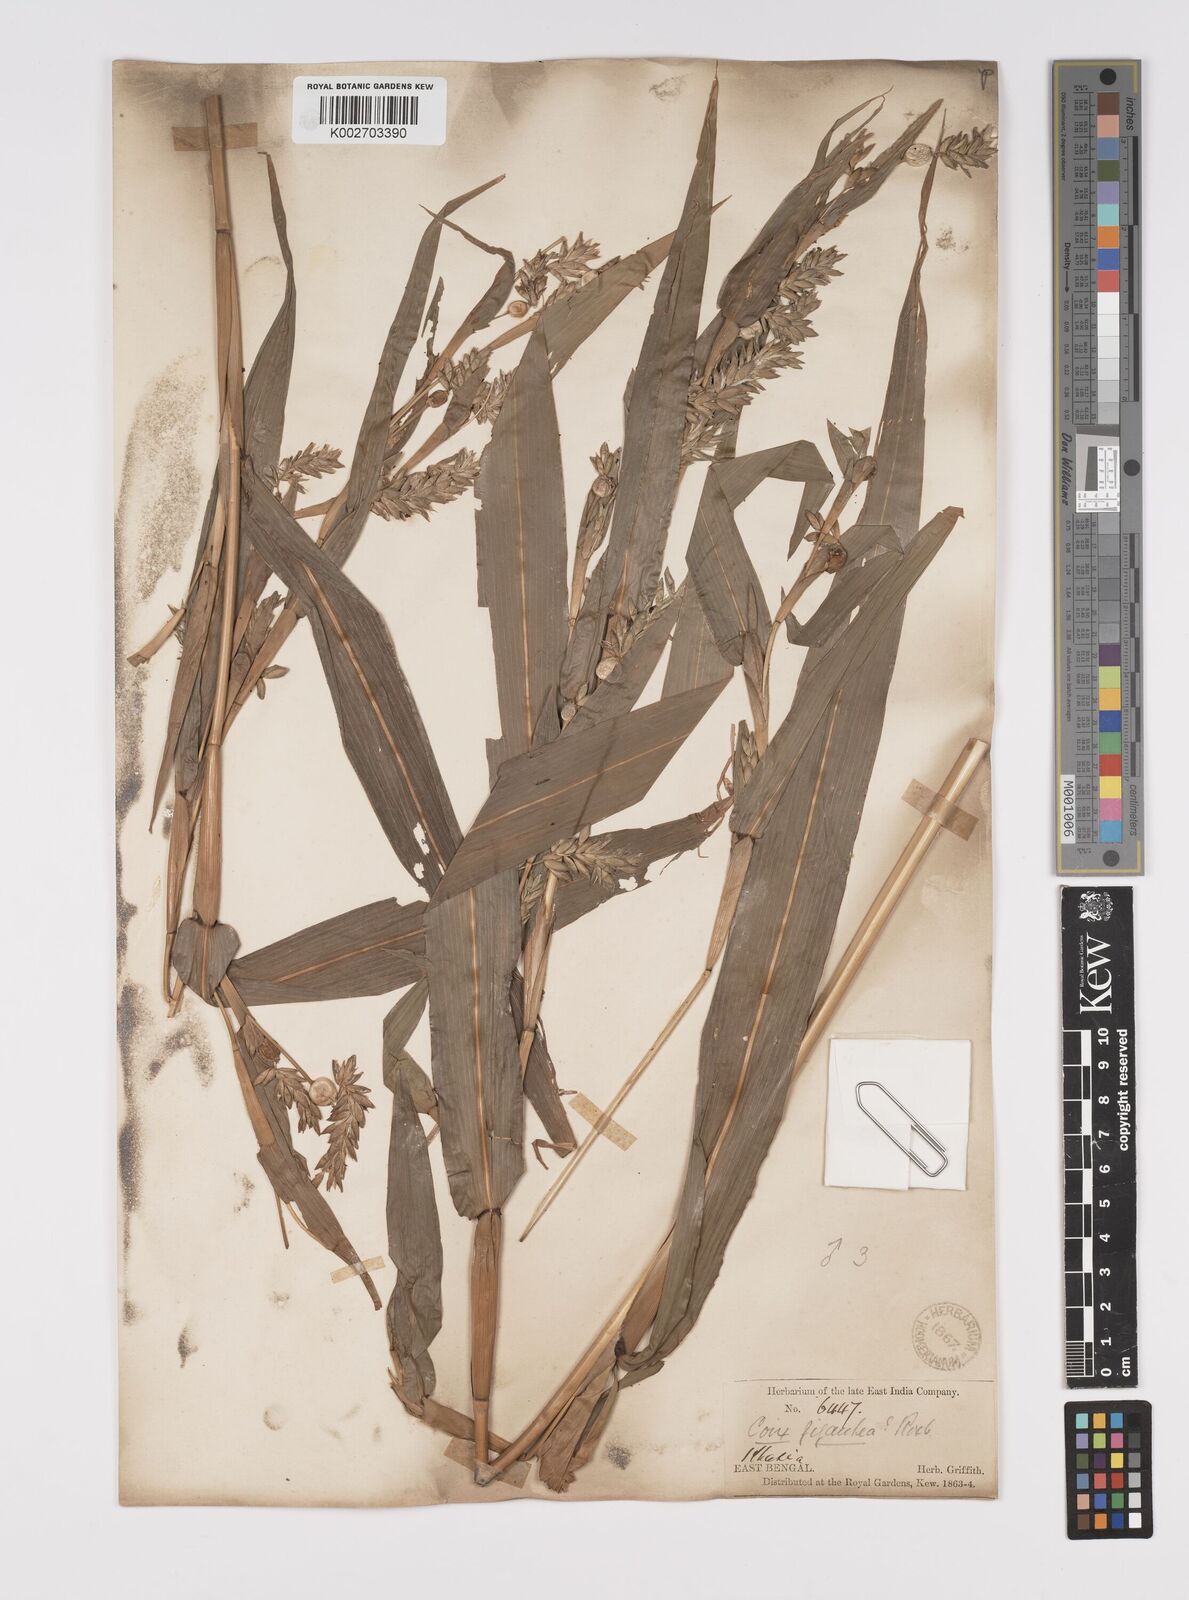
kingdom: Plantae
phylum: Tracheophyta
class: Liliopsida
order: Poales
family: Poaceae
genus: Coix
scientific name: Coix lacryma-jobi
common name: Job's tears
